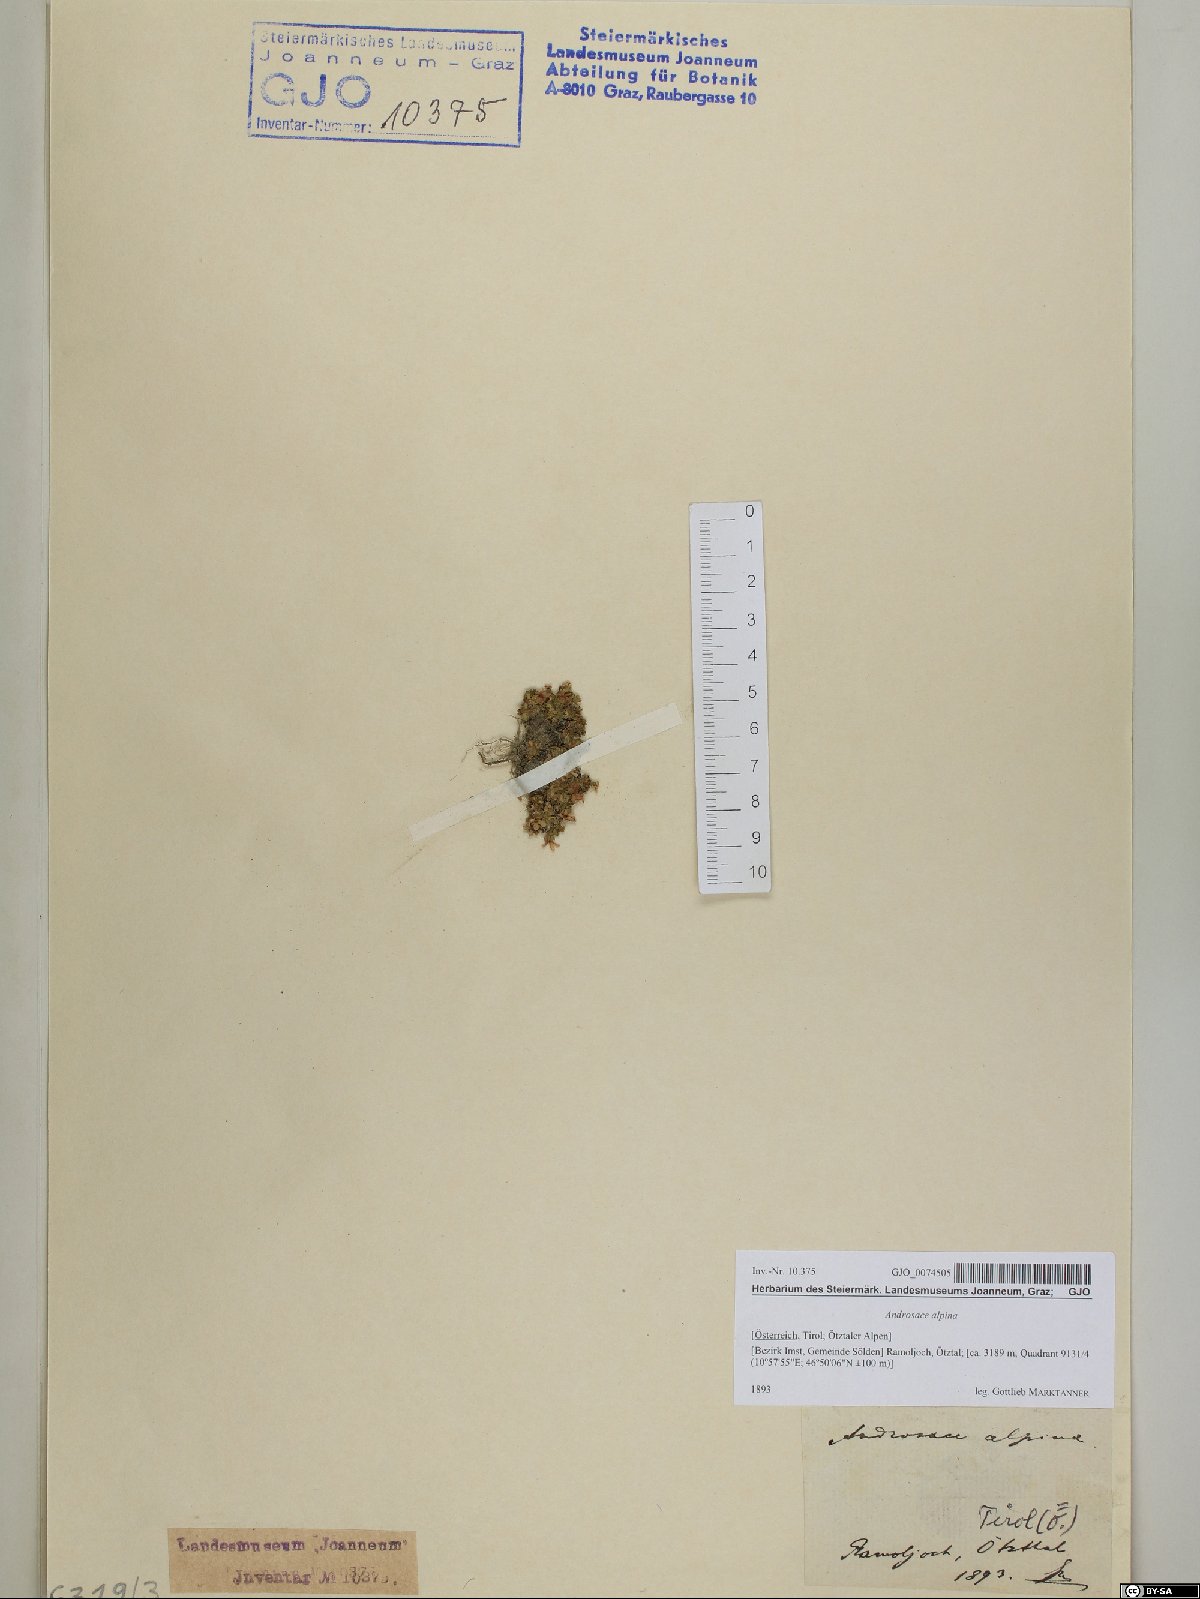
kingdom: Plantae
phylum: Tracheophyta
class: Magnoliopsida
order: Ericales
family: Primulaceae
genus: Androsace
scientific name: Androsace alpina
